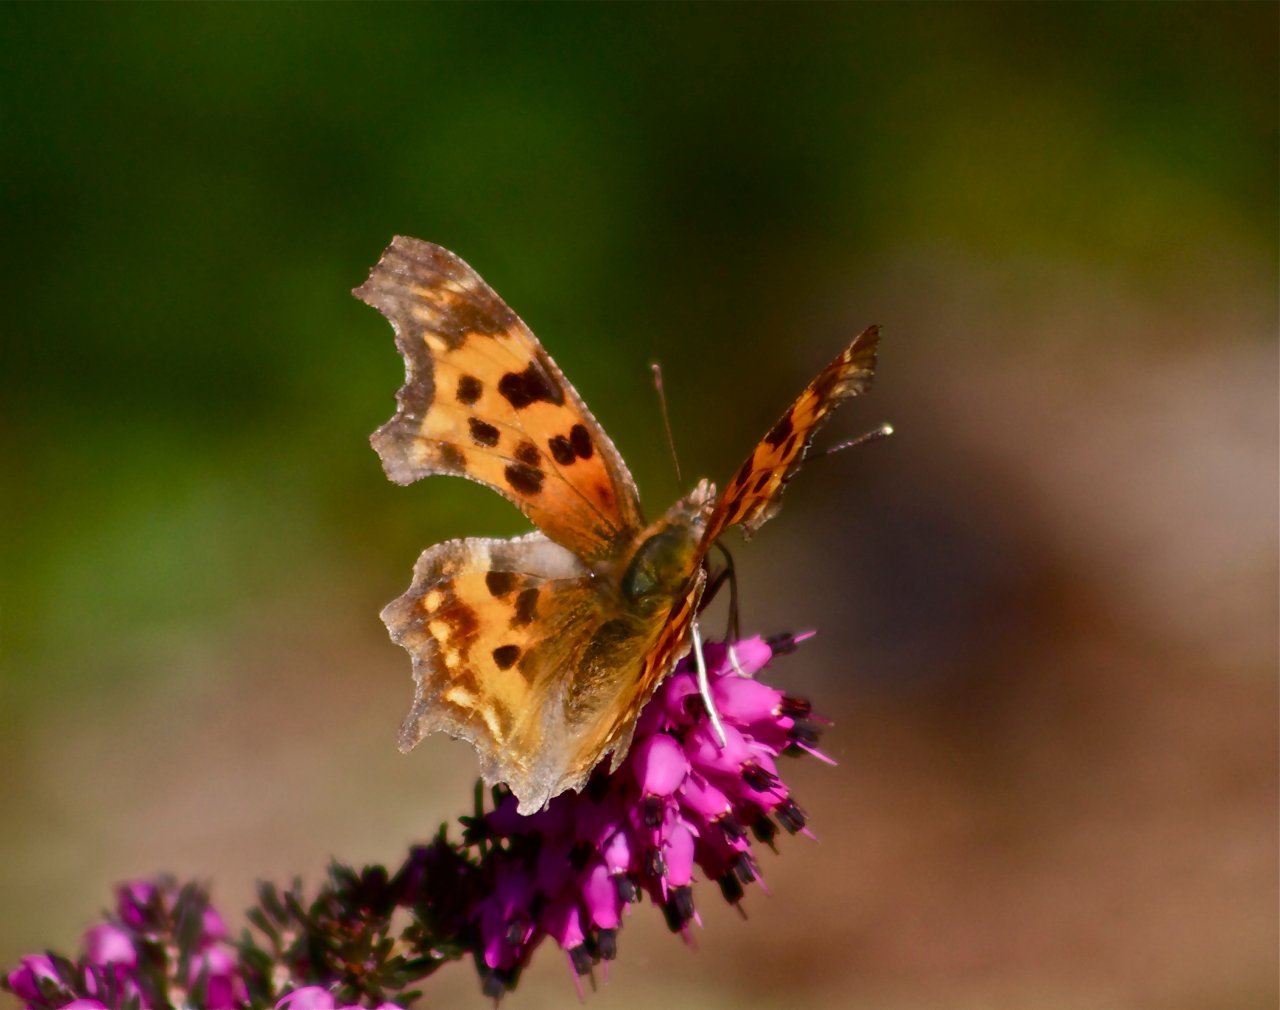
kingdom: Animalia
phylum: Arthropoda
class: Insecta
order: Lepidoptera
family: Nymphalidae
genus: Polygonia
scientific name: Polygonia satyrus
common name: Satyr Comma
